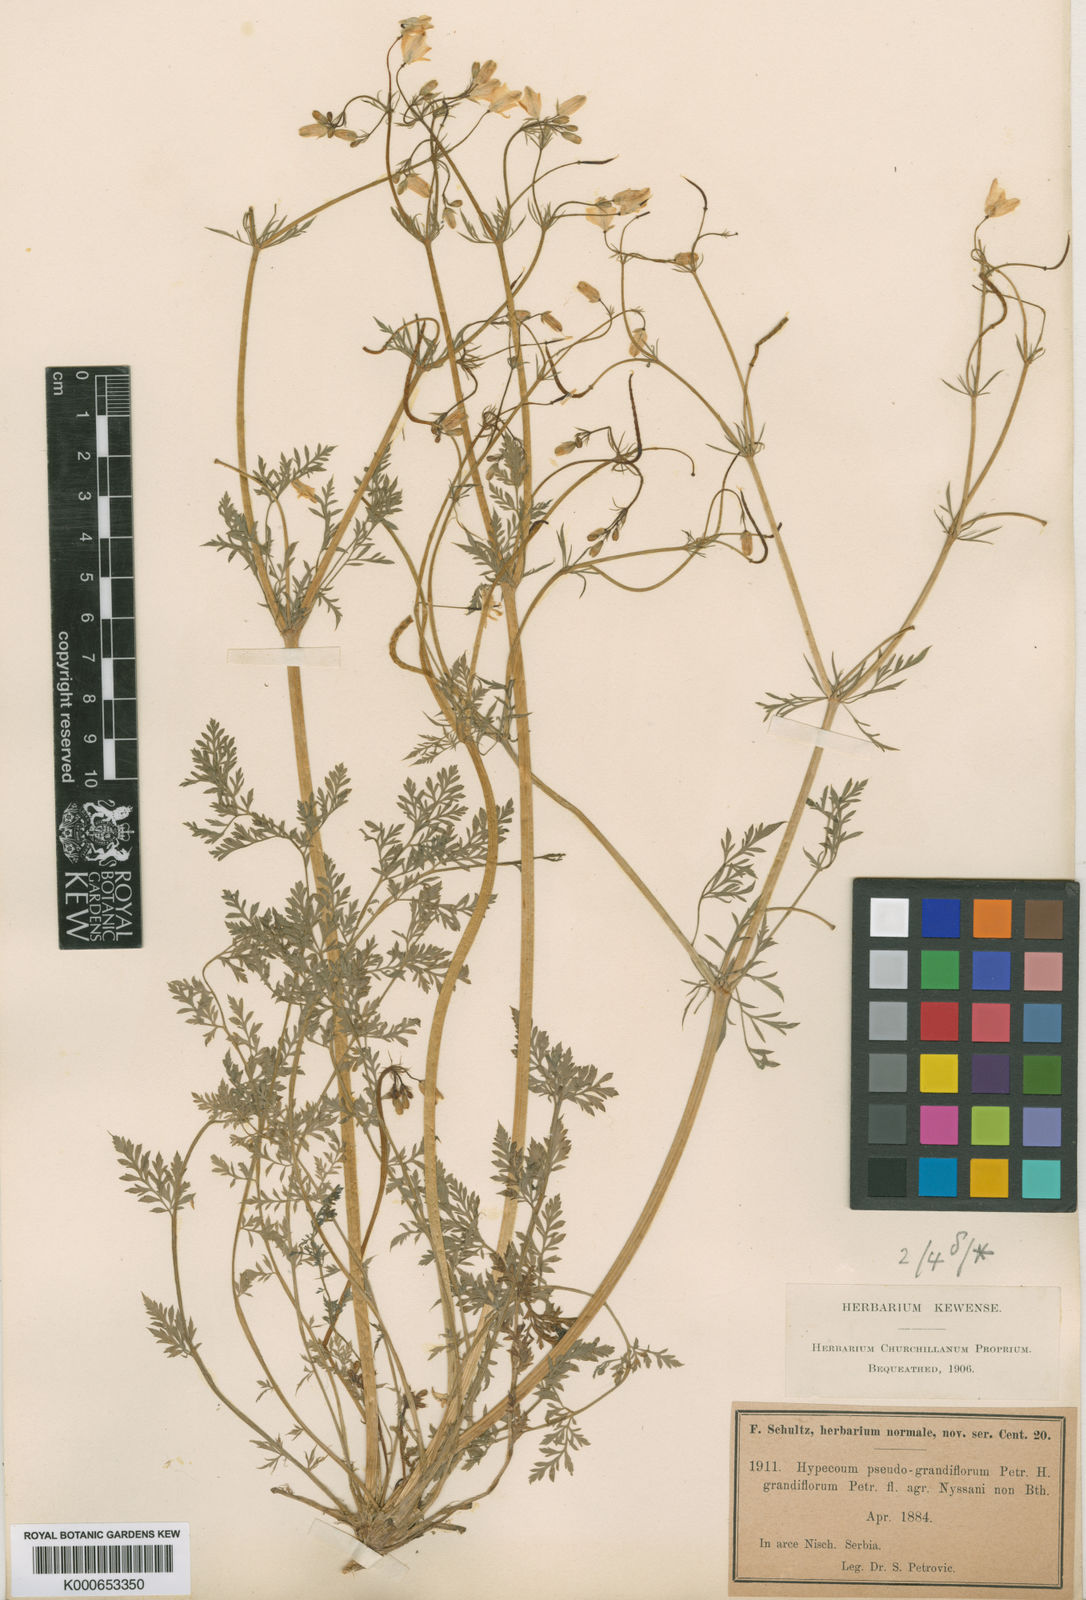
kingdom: Plantae
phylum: Tracheophyta
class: Magnoliopsida
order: Ranunculales
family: Papaveraceae
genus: Hypecoum
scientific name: Hypecoum
